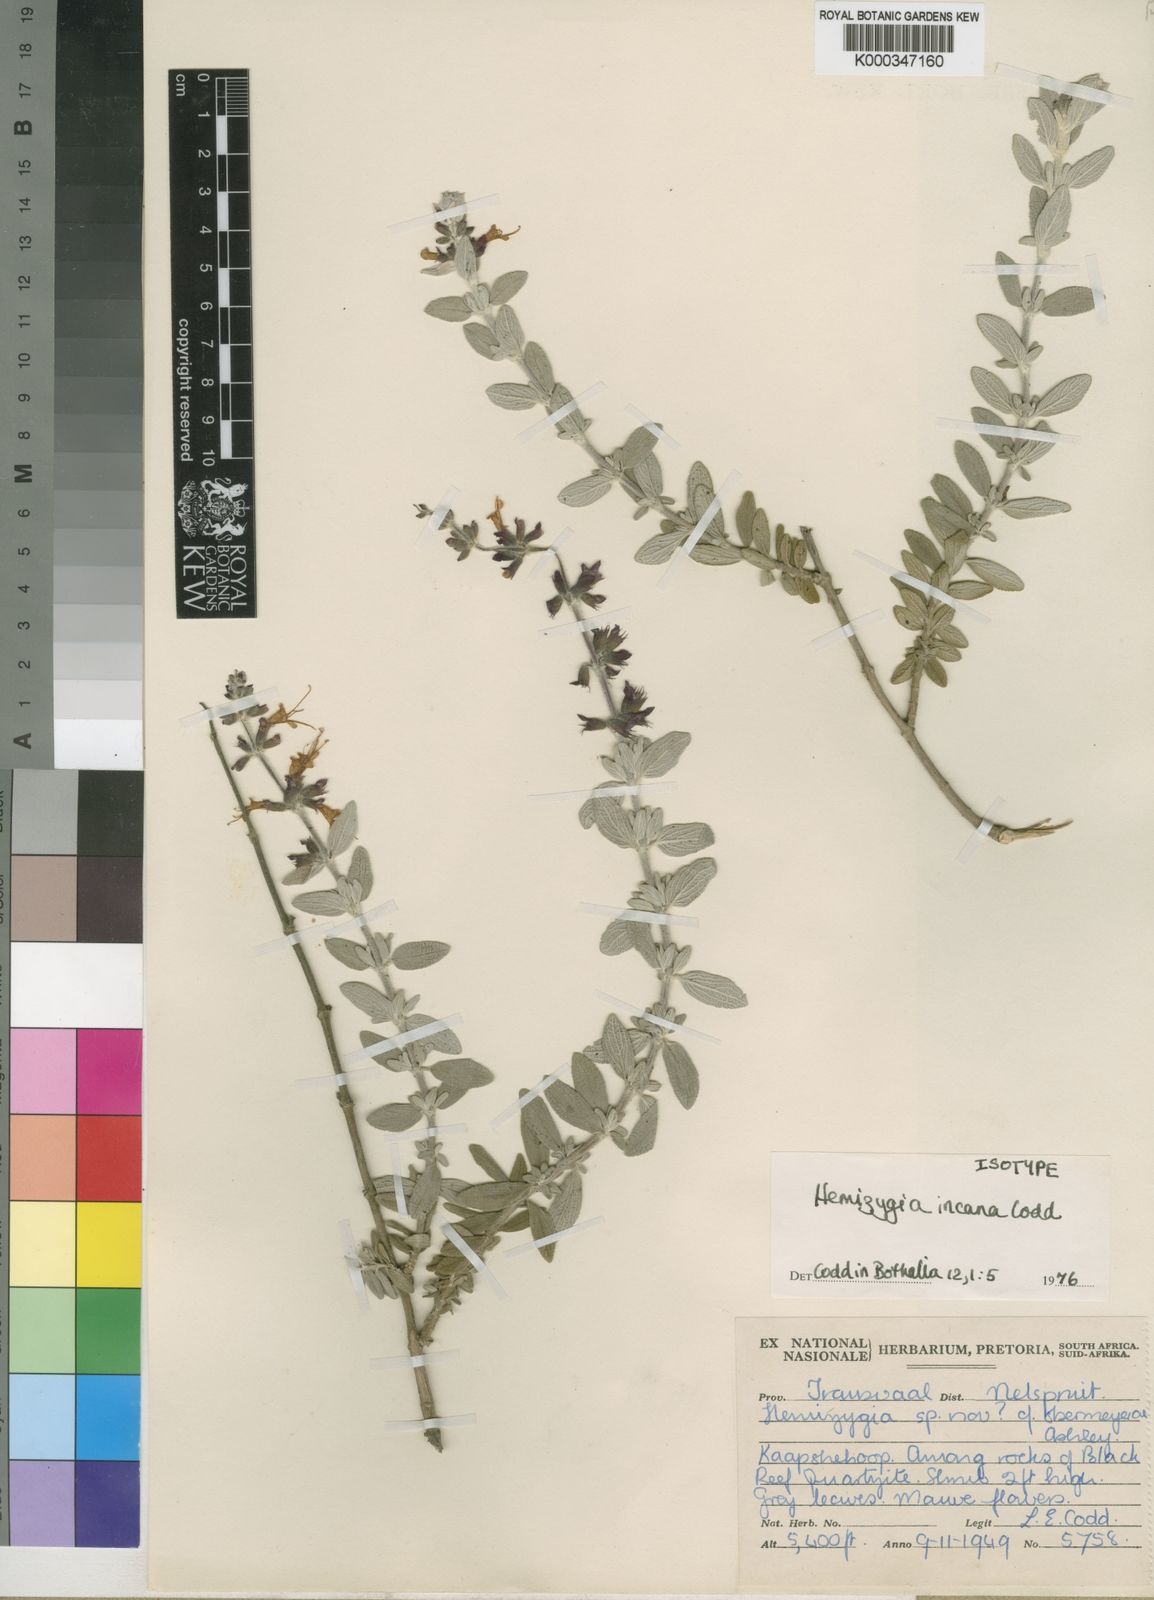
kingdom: Plantae
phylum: Tracheophyta
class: Magnoliopsida
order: Lamiales
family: Lamiaceae
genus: Syncolostemon
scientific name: Syncolostemon incanus
